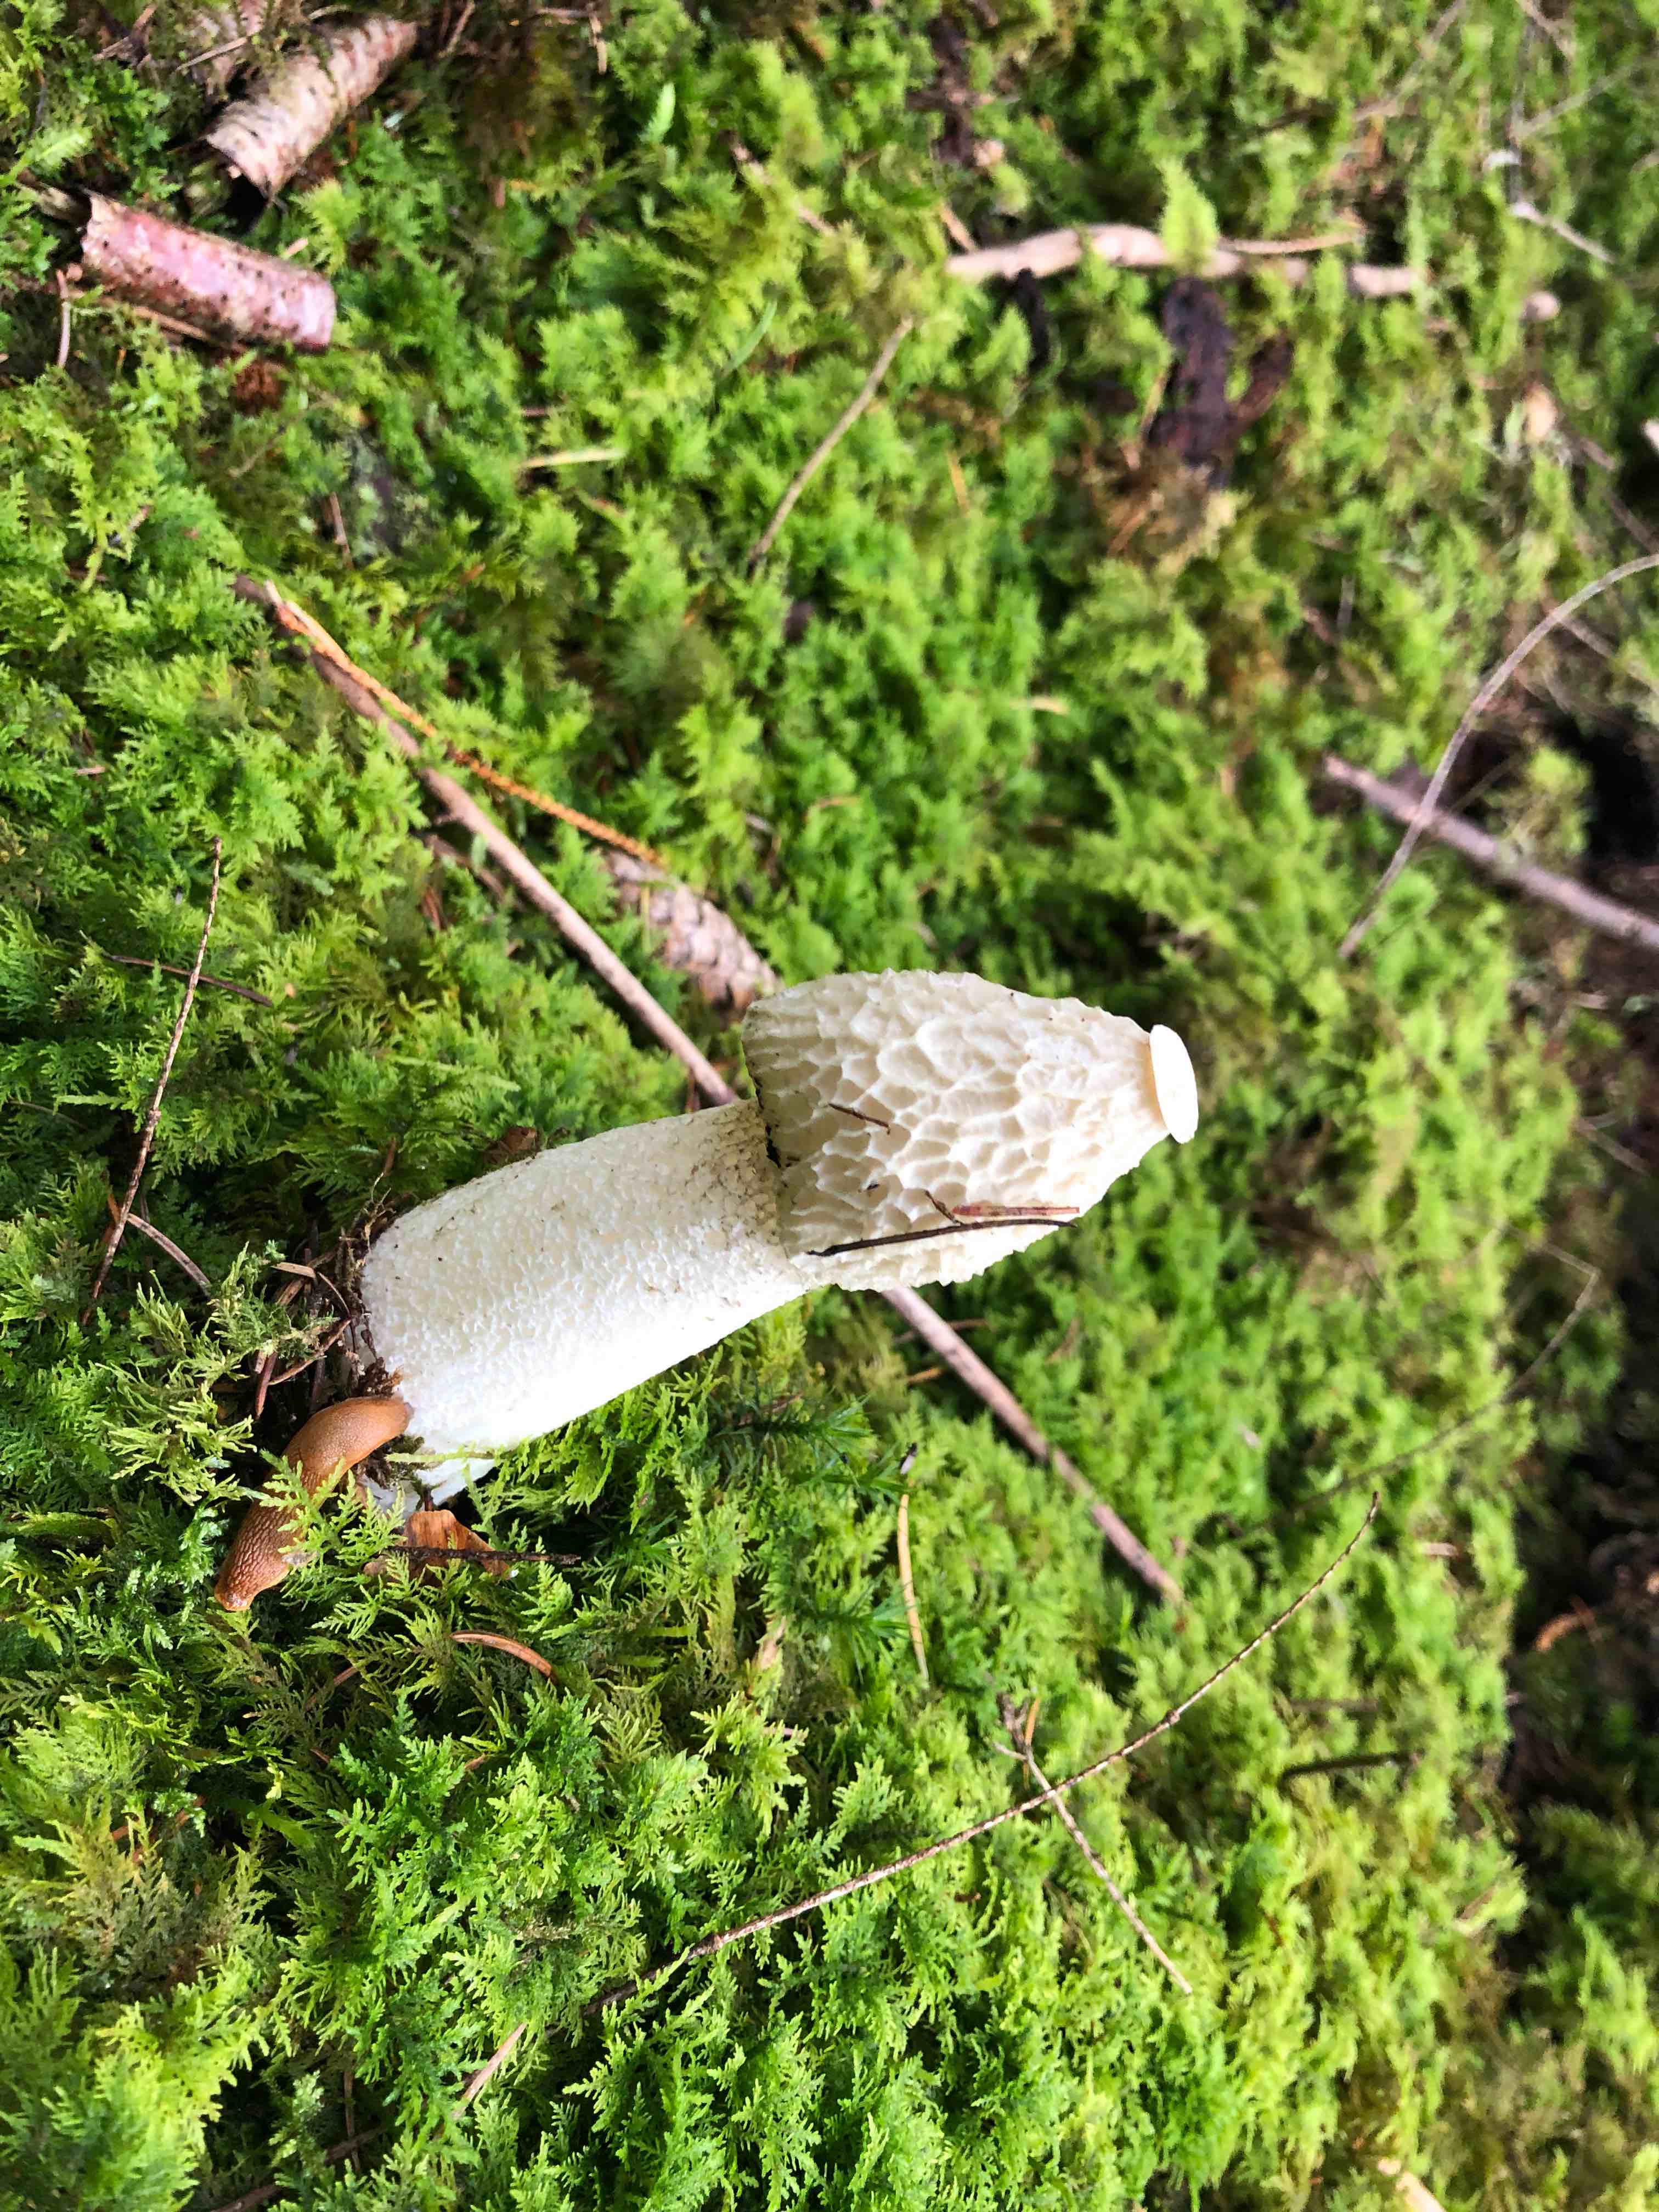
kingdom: Fungi
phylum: Basidiomycota
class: Agaricomycetes
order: Phallales
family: Phallaceae
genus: Phallus
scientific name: Phallus impudicus
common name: almindelig stinksvamp
